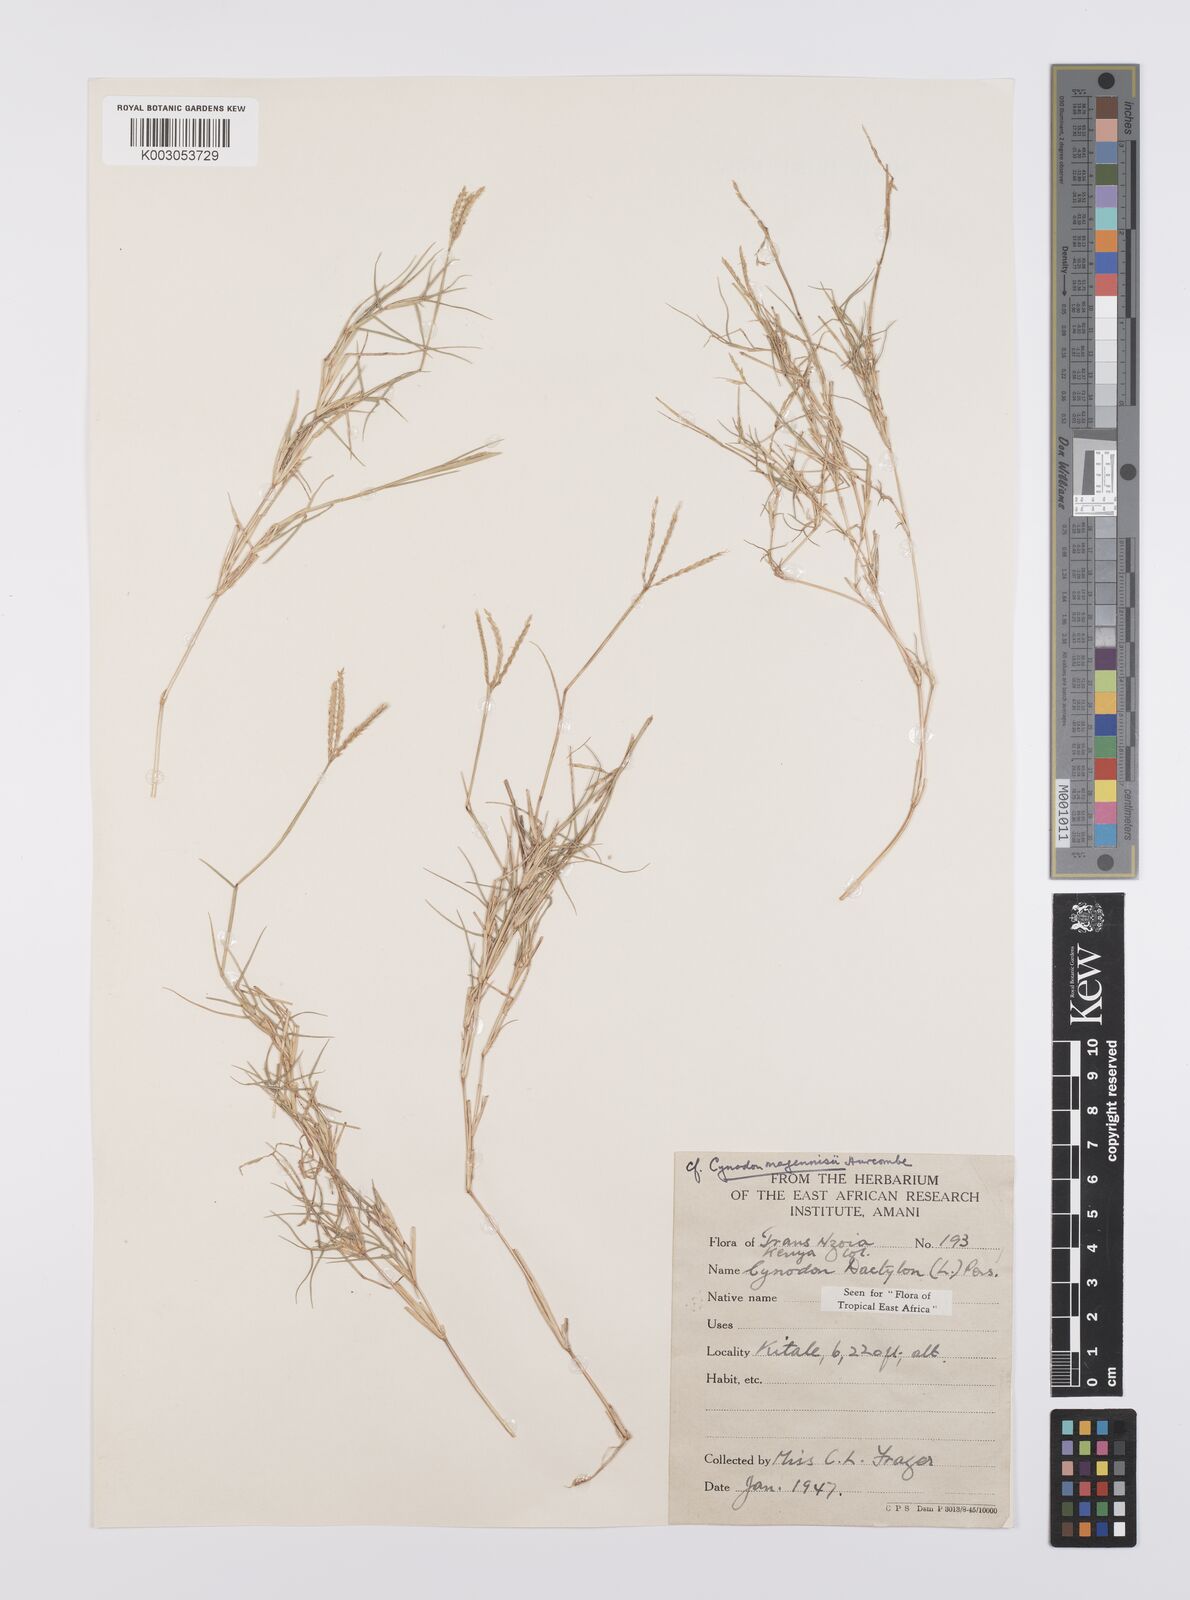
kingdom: Plantae
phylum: Tracheophyta
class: Liliopsida
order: Poales
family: Poaceae
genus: Cynodon
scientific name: Cynodon dactylon
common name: Bermuda grass
